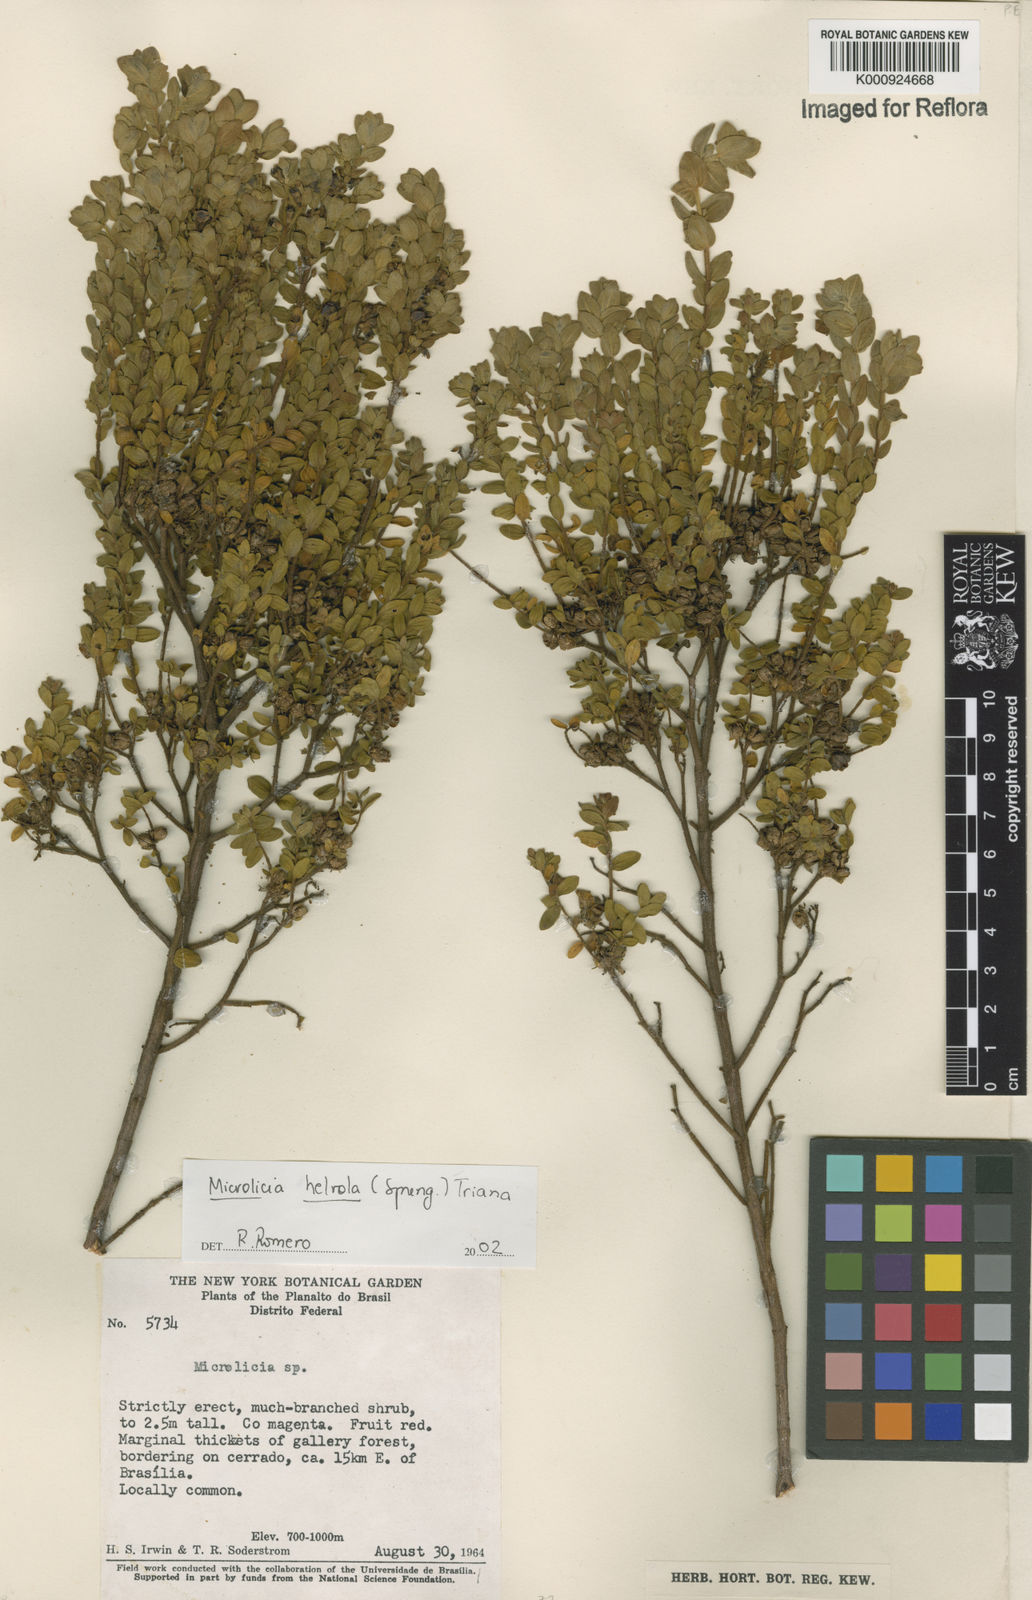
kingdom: Plantae
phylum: Tracheophyta
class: Magnoliopsida
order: Myrtales
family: Melastomataceae
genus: Microlicia
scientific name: Microlicia helvola
